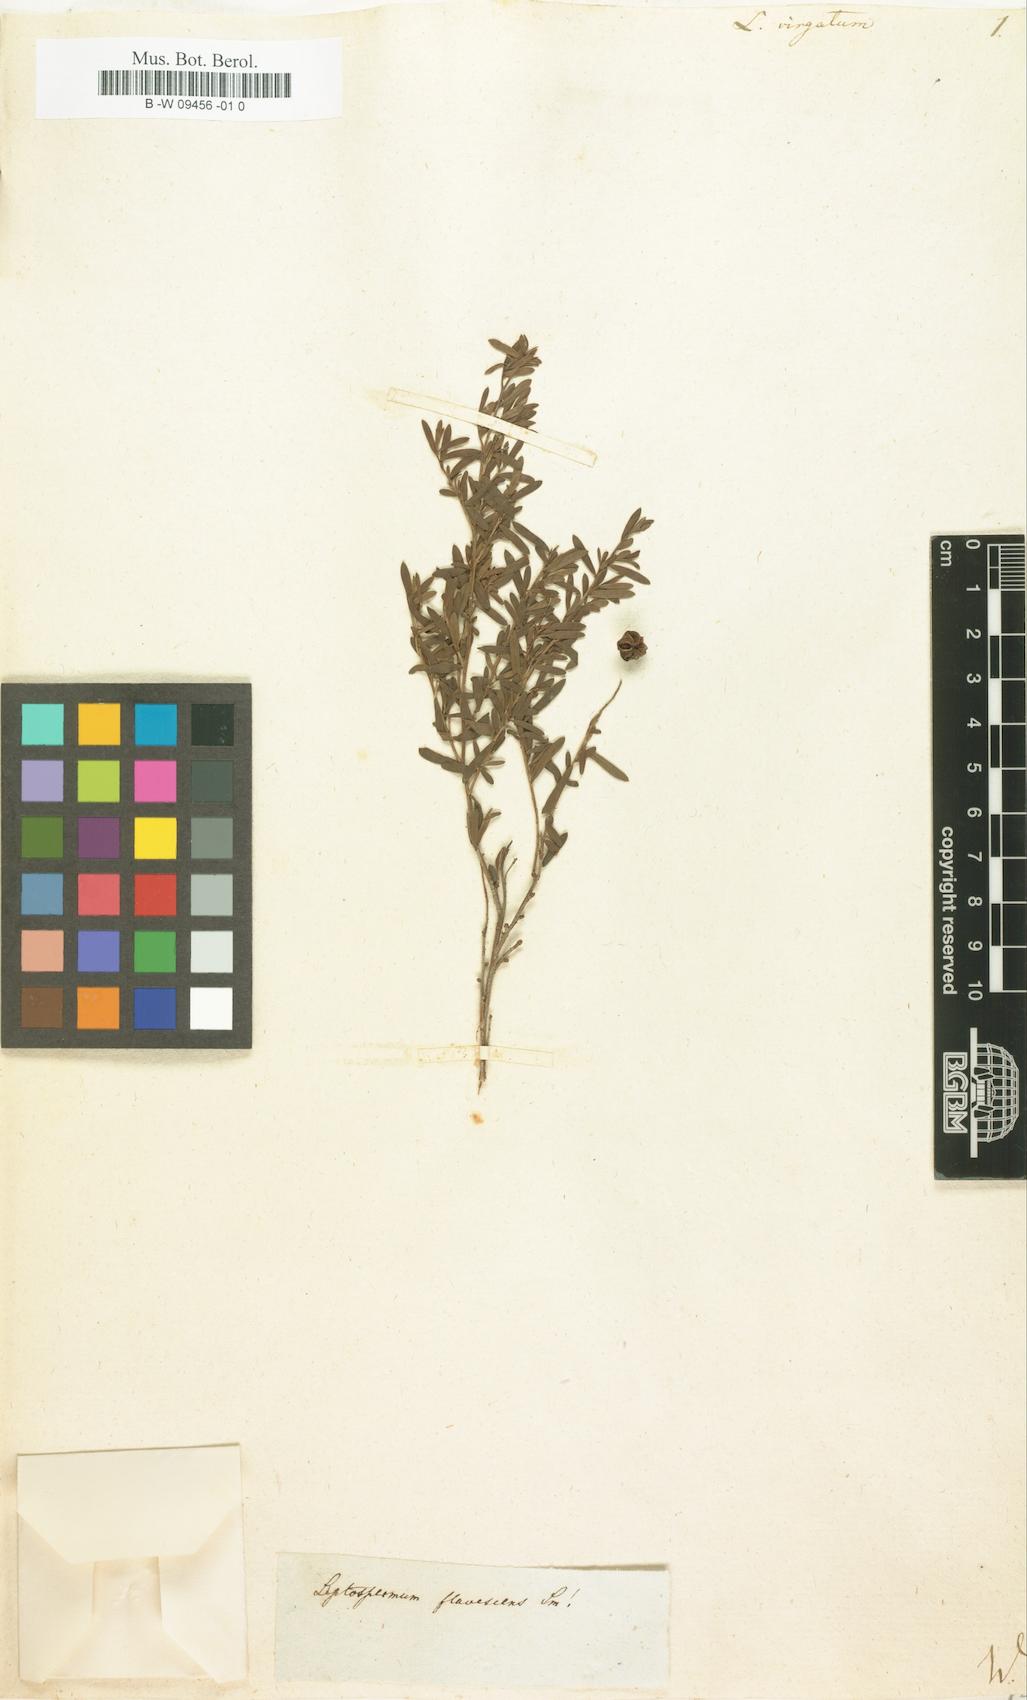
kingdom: Plantae
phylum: Tracheophyta
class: Magnoliopsida
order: Myrtales
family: Myrtaceae
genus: Sannantha
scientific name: Sannantha virgata
